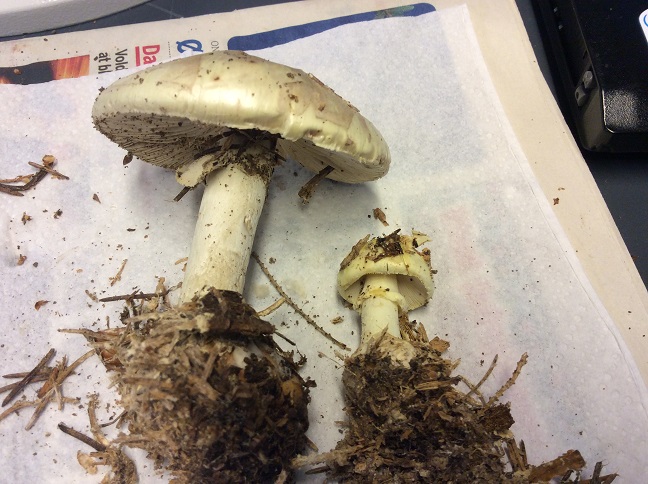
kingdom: Fungi
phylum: Basidiomycota
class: Agaricomycetes
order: Agaricales
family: Amanitaceae
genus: Amanita
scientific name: Amanita citrina
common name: kugleknoldet fluesvamp
